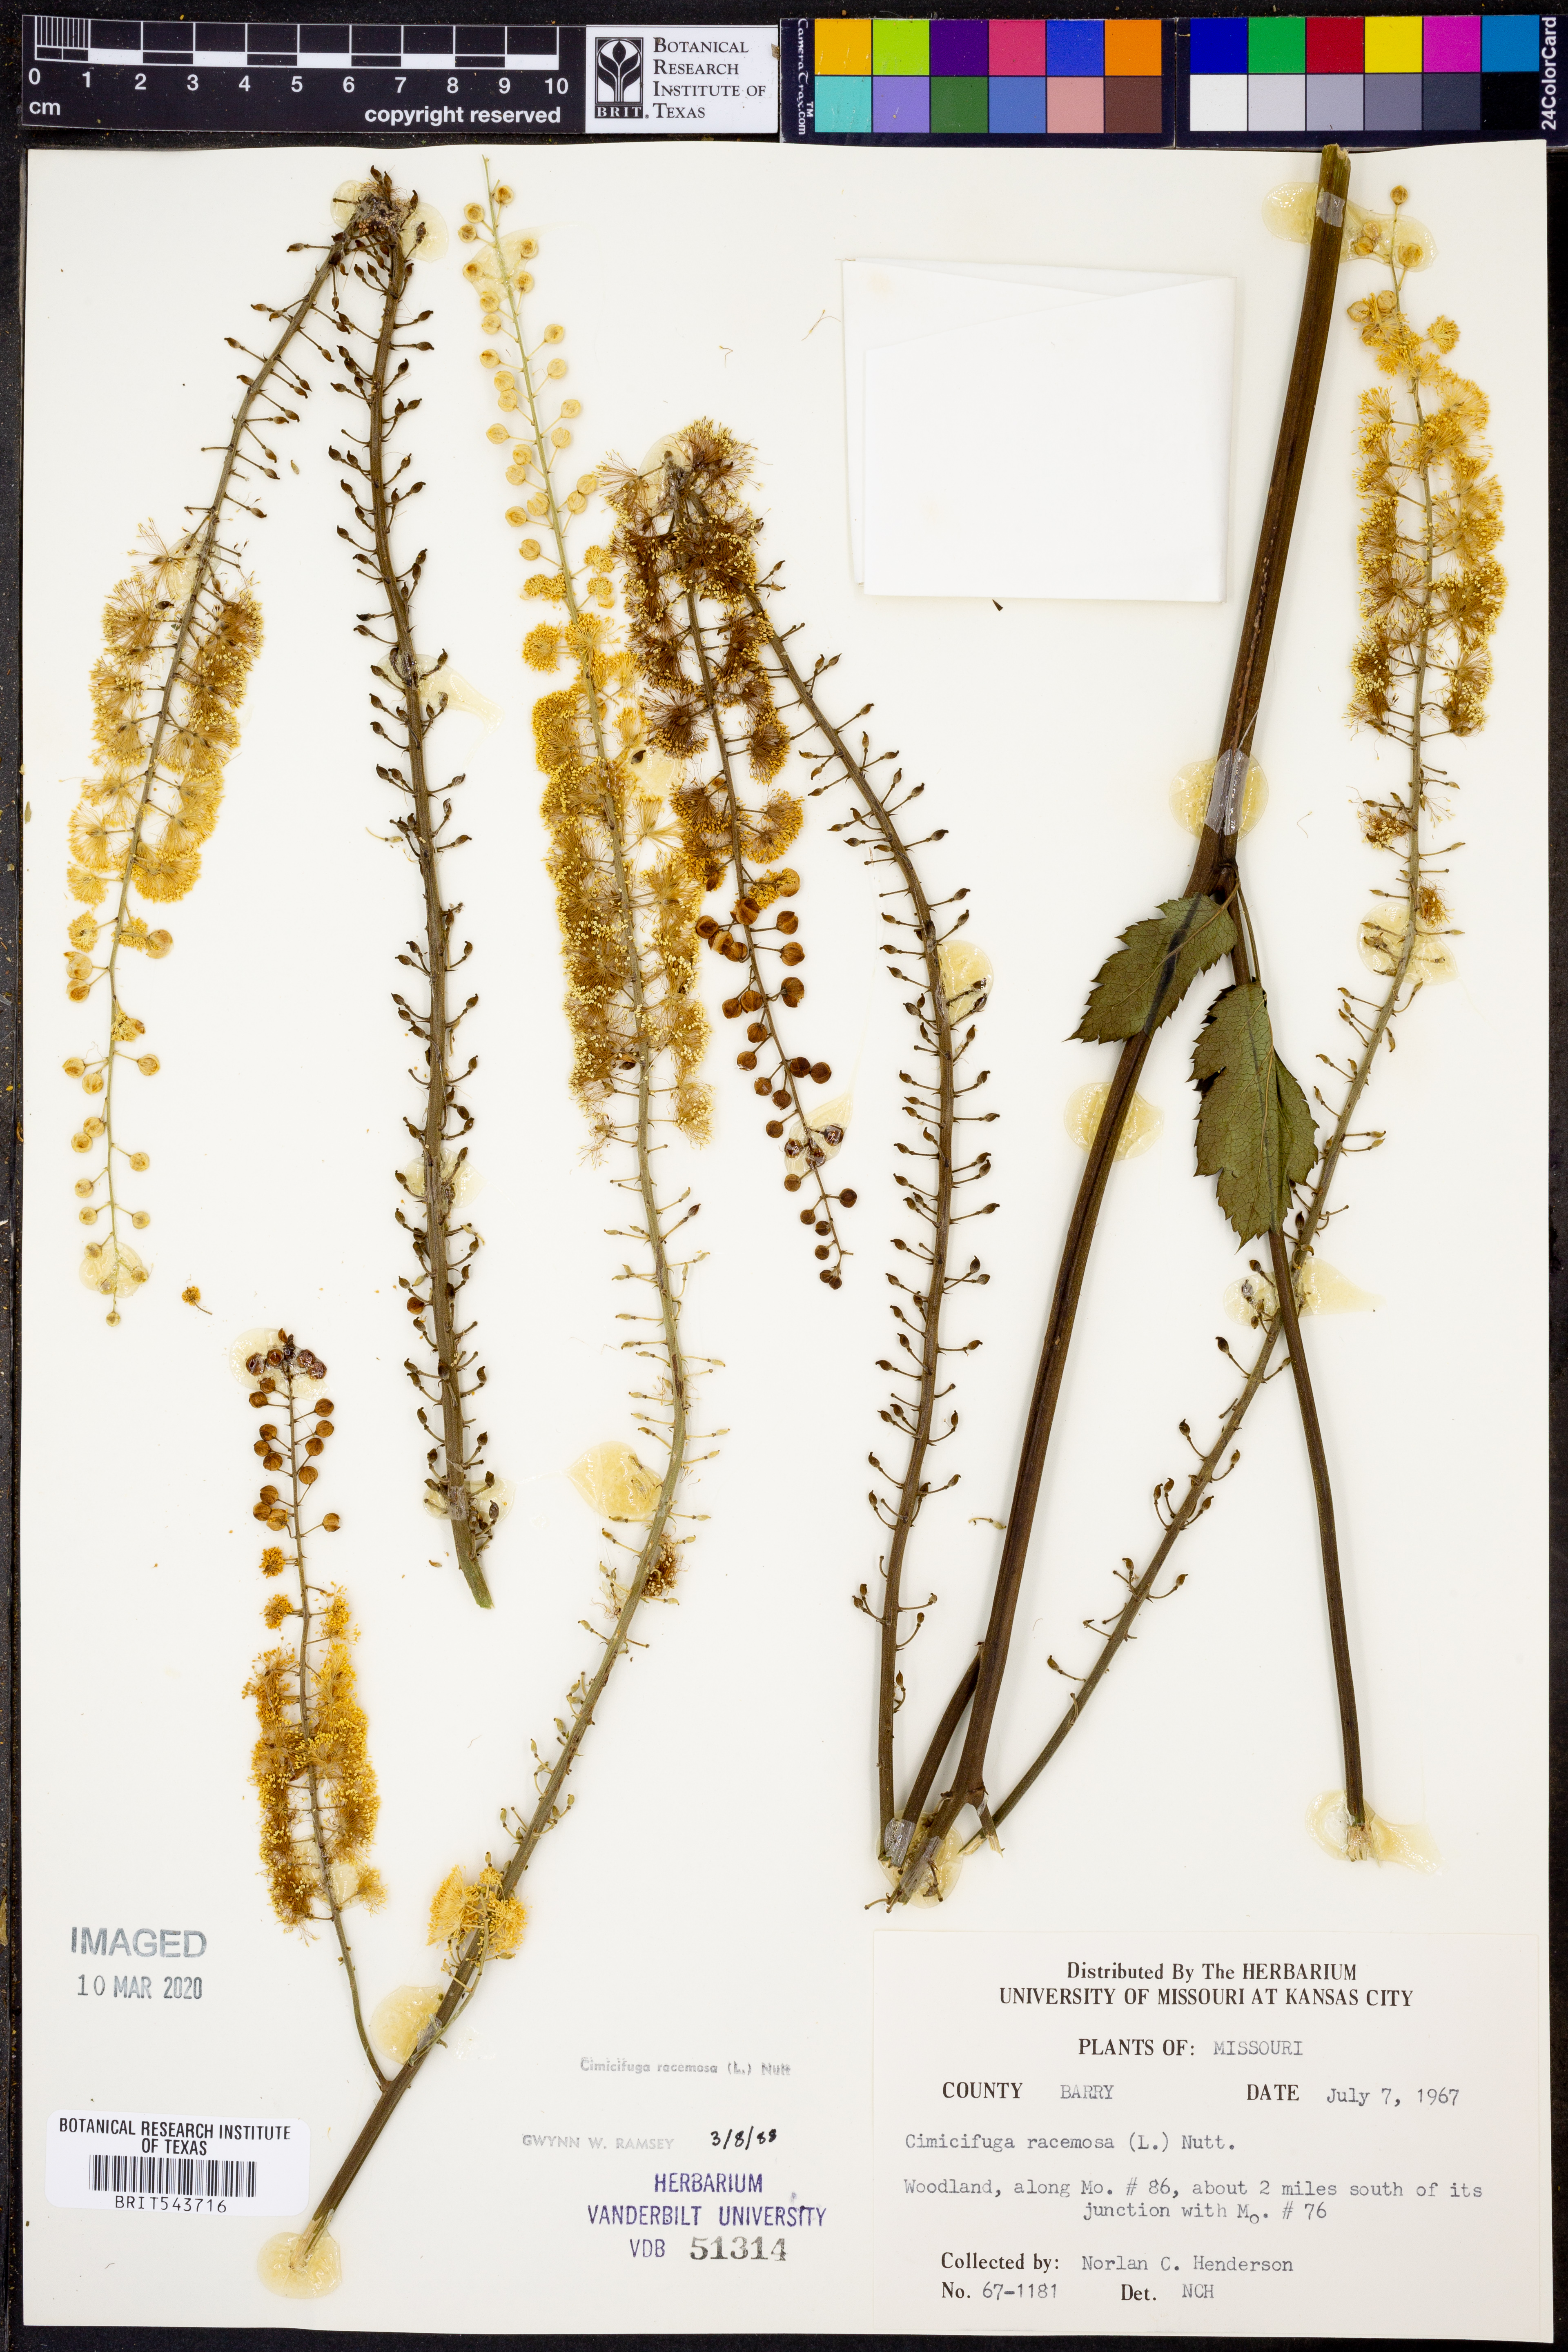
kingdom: Plantae
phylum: Tracheophyta
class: Magnoliopsida
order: Ranunculales
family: Ranunculaceae
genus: Actaea
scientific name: Actaea racemosa
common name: Black cohosh
